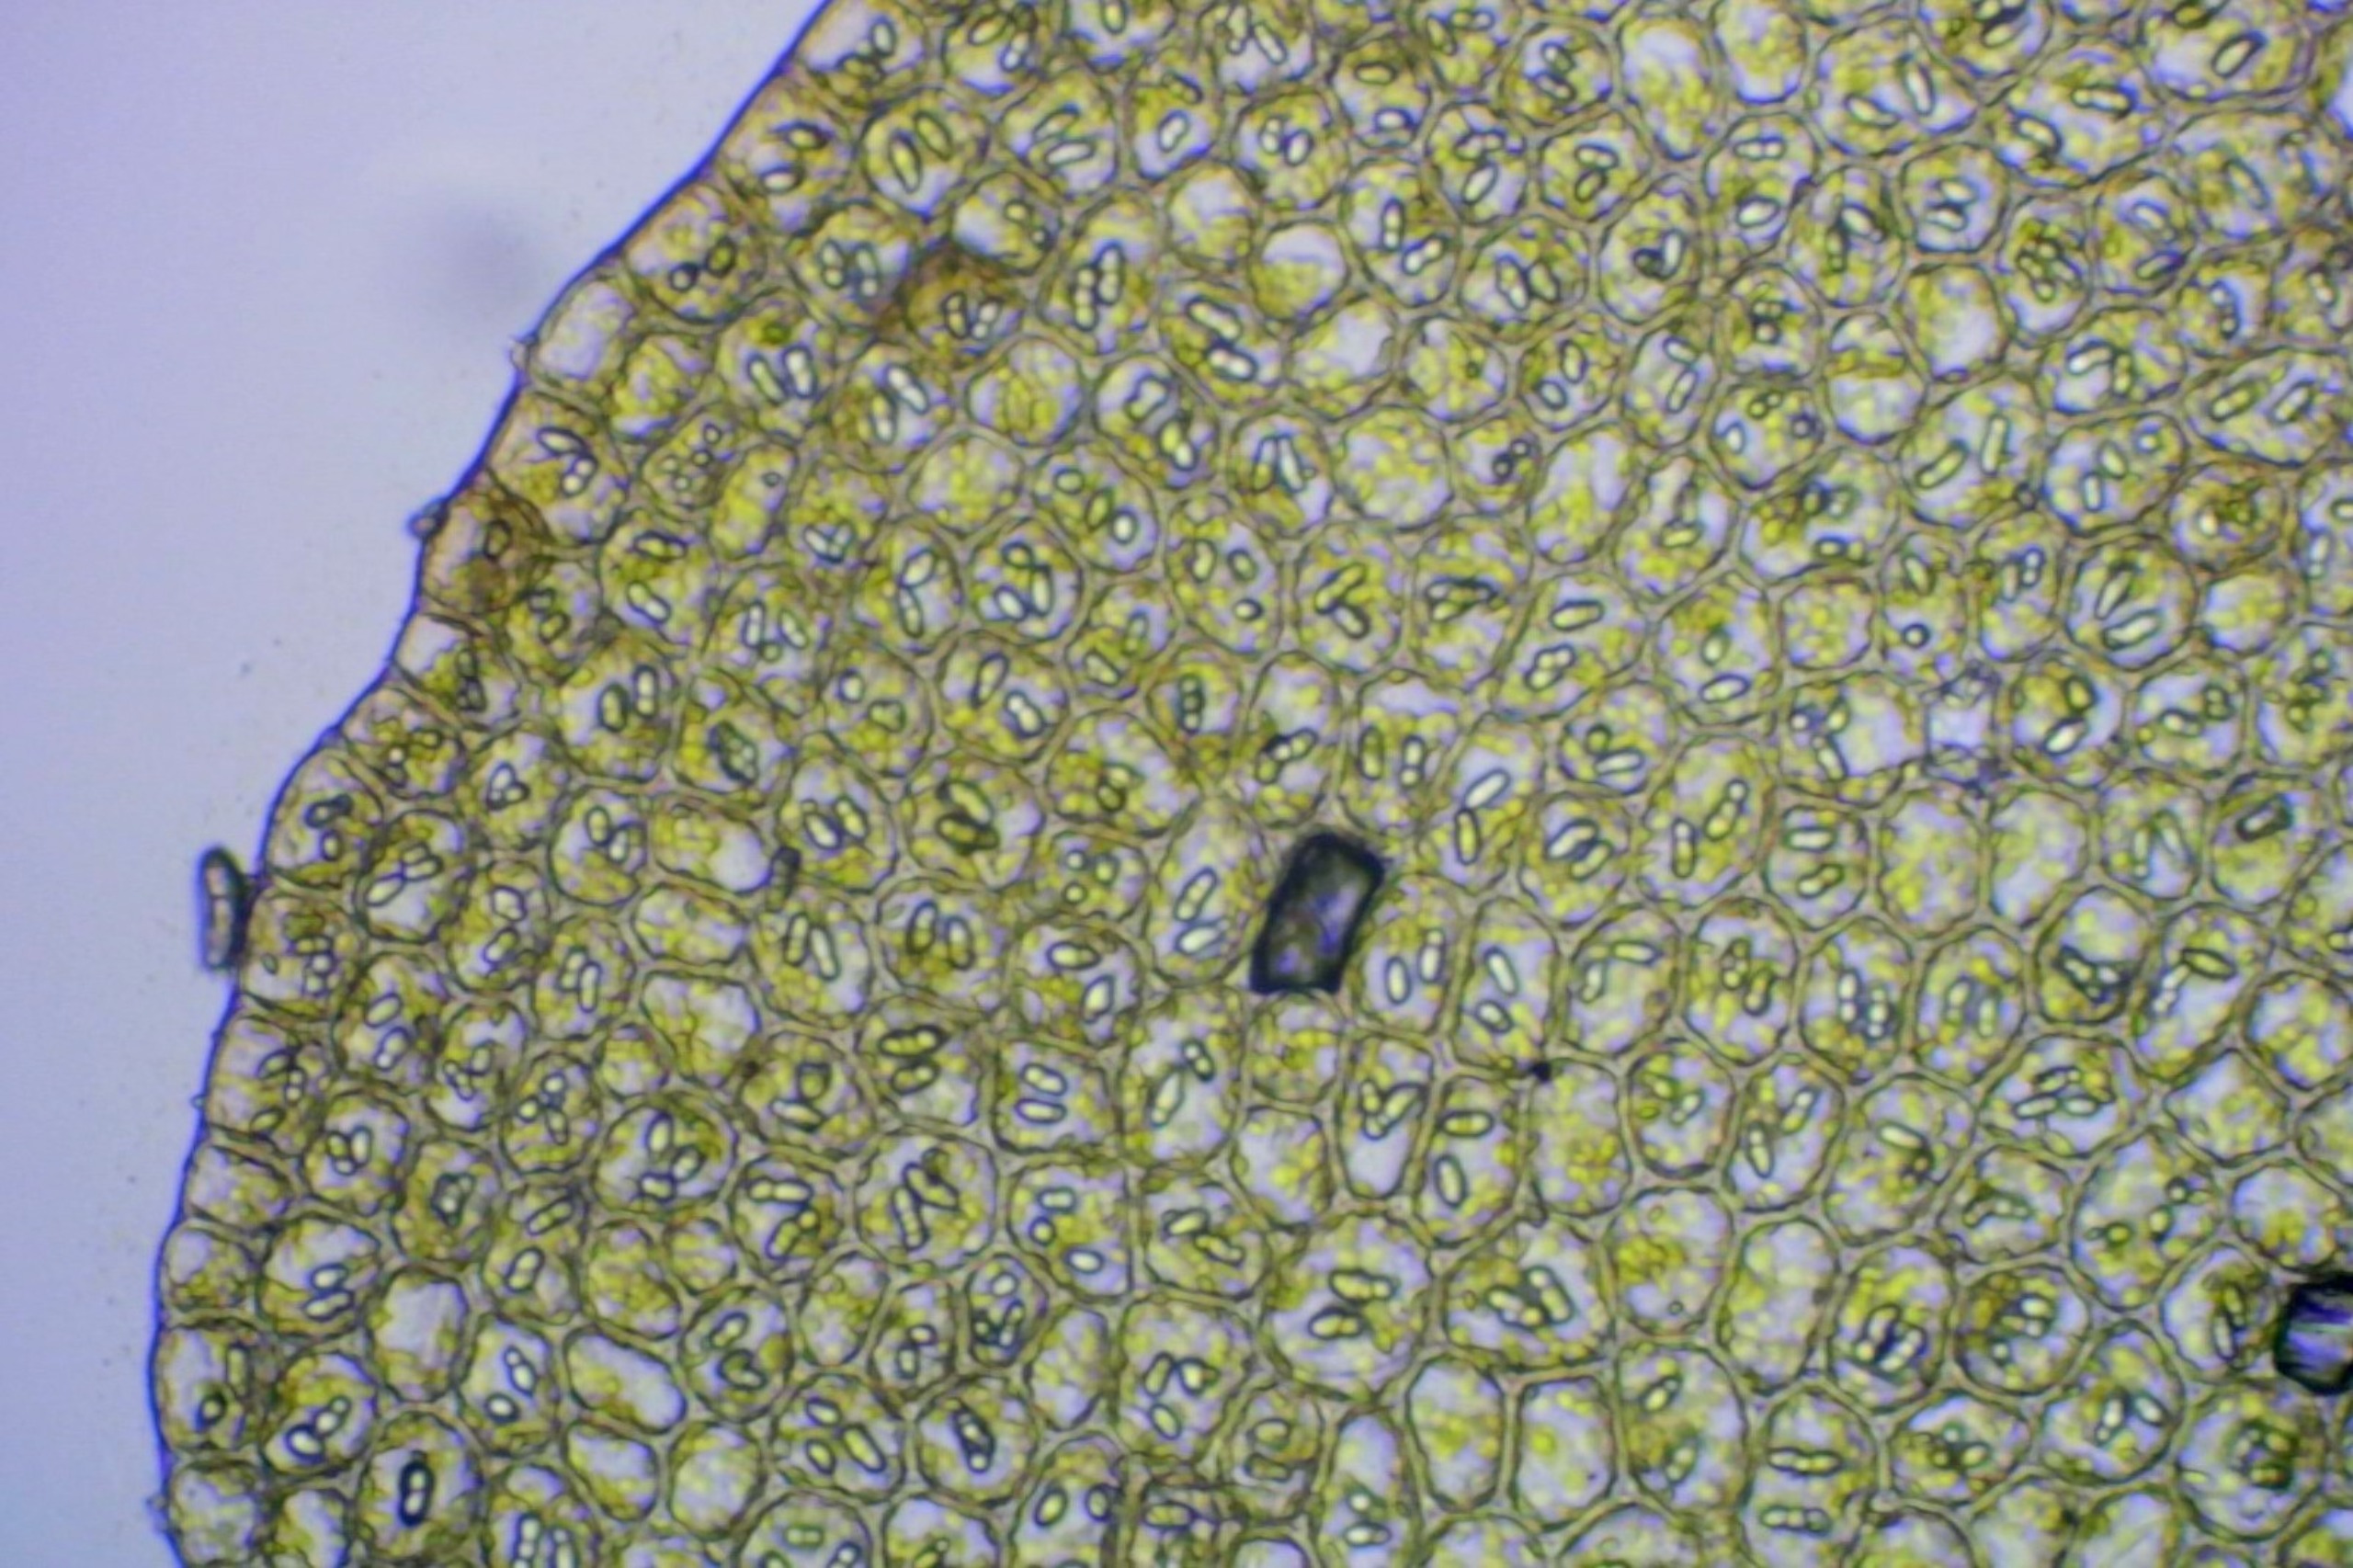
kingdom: Plantae
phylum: Marchantiophyta
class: Jungermanniopsida
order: Jungermanniales
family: Gymnomitriaceae
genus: Nardia
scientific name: Nardia scalaris
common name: Tæt kappesvøb
